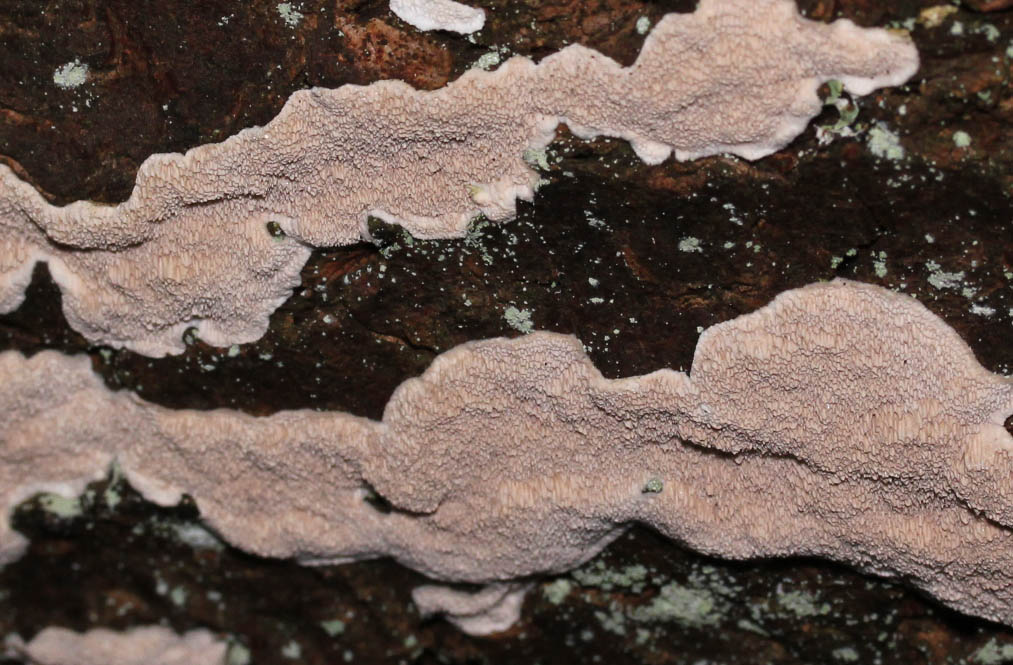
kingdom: Fungi
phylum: Basidiomycota
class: Agaricomycetes
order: Polyporales
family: Gelatoporiaceae
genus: Cinereomyces
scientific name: Cinereomyces lindbladii
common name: almindelig gråporesvamp
